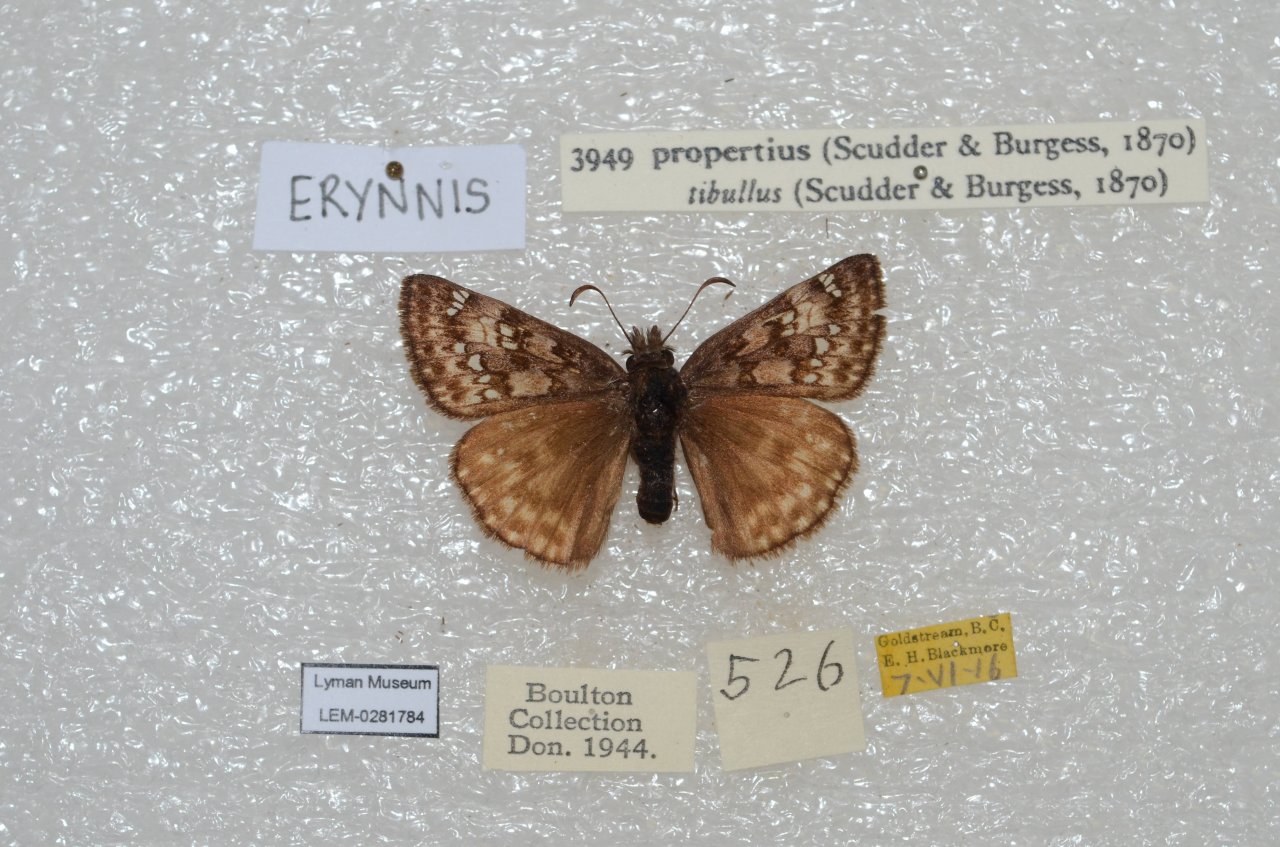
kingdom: Animalia
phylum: Arthropoda
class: Insecta
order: Lepidoptera
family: Hesperiidae
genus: Erynnis
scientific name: Erynnis propertius
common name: Propertius Duskywing
